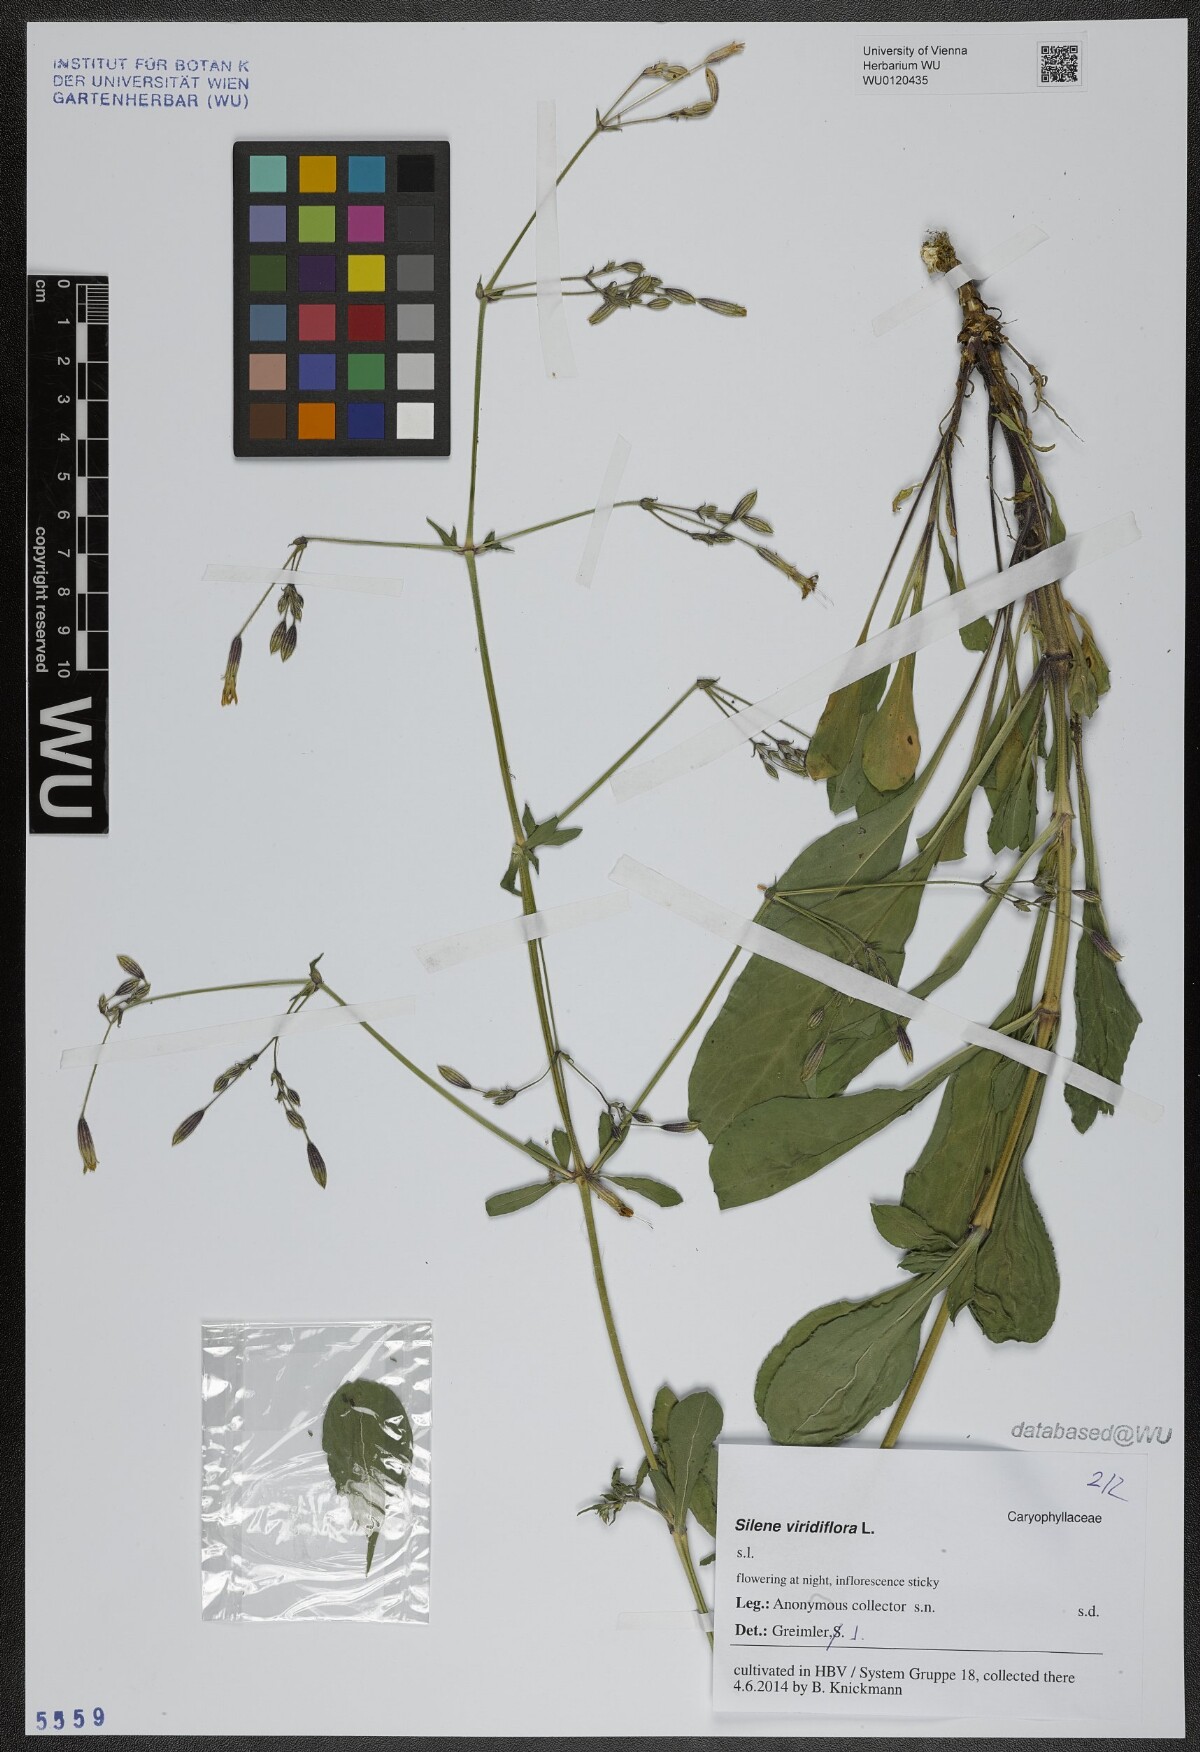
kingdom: Plantae
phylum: Tracheophyta
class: Magnoliopsida
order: Caryophyllales
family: Caryophyllaceae
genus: Silene
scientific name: Silene viridiflora
